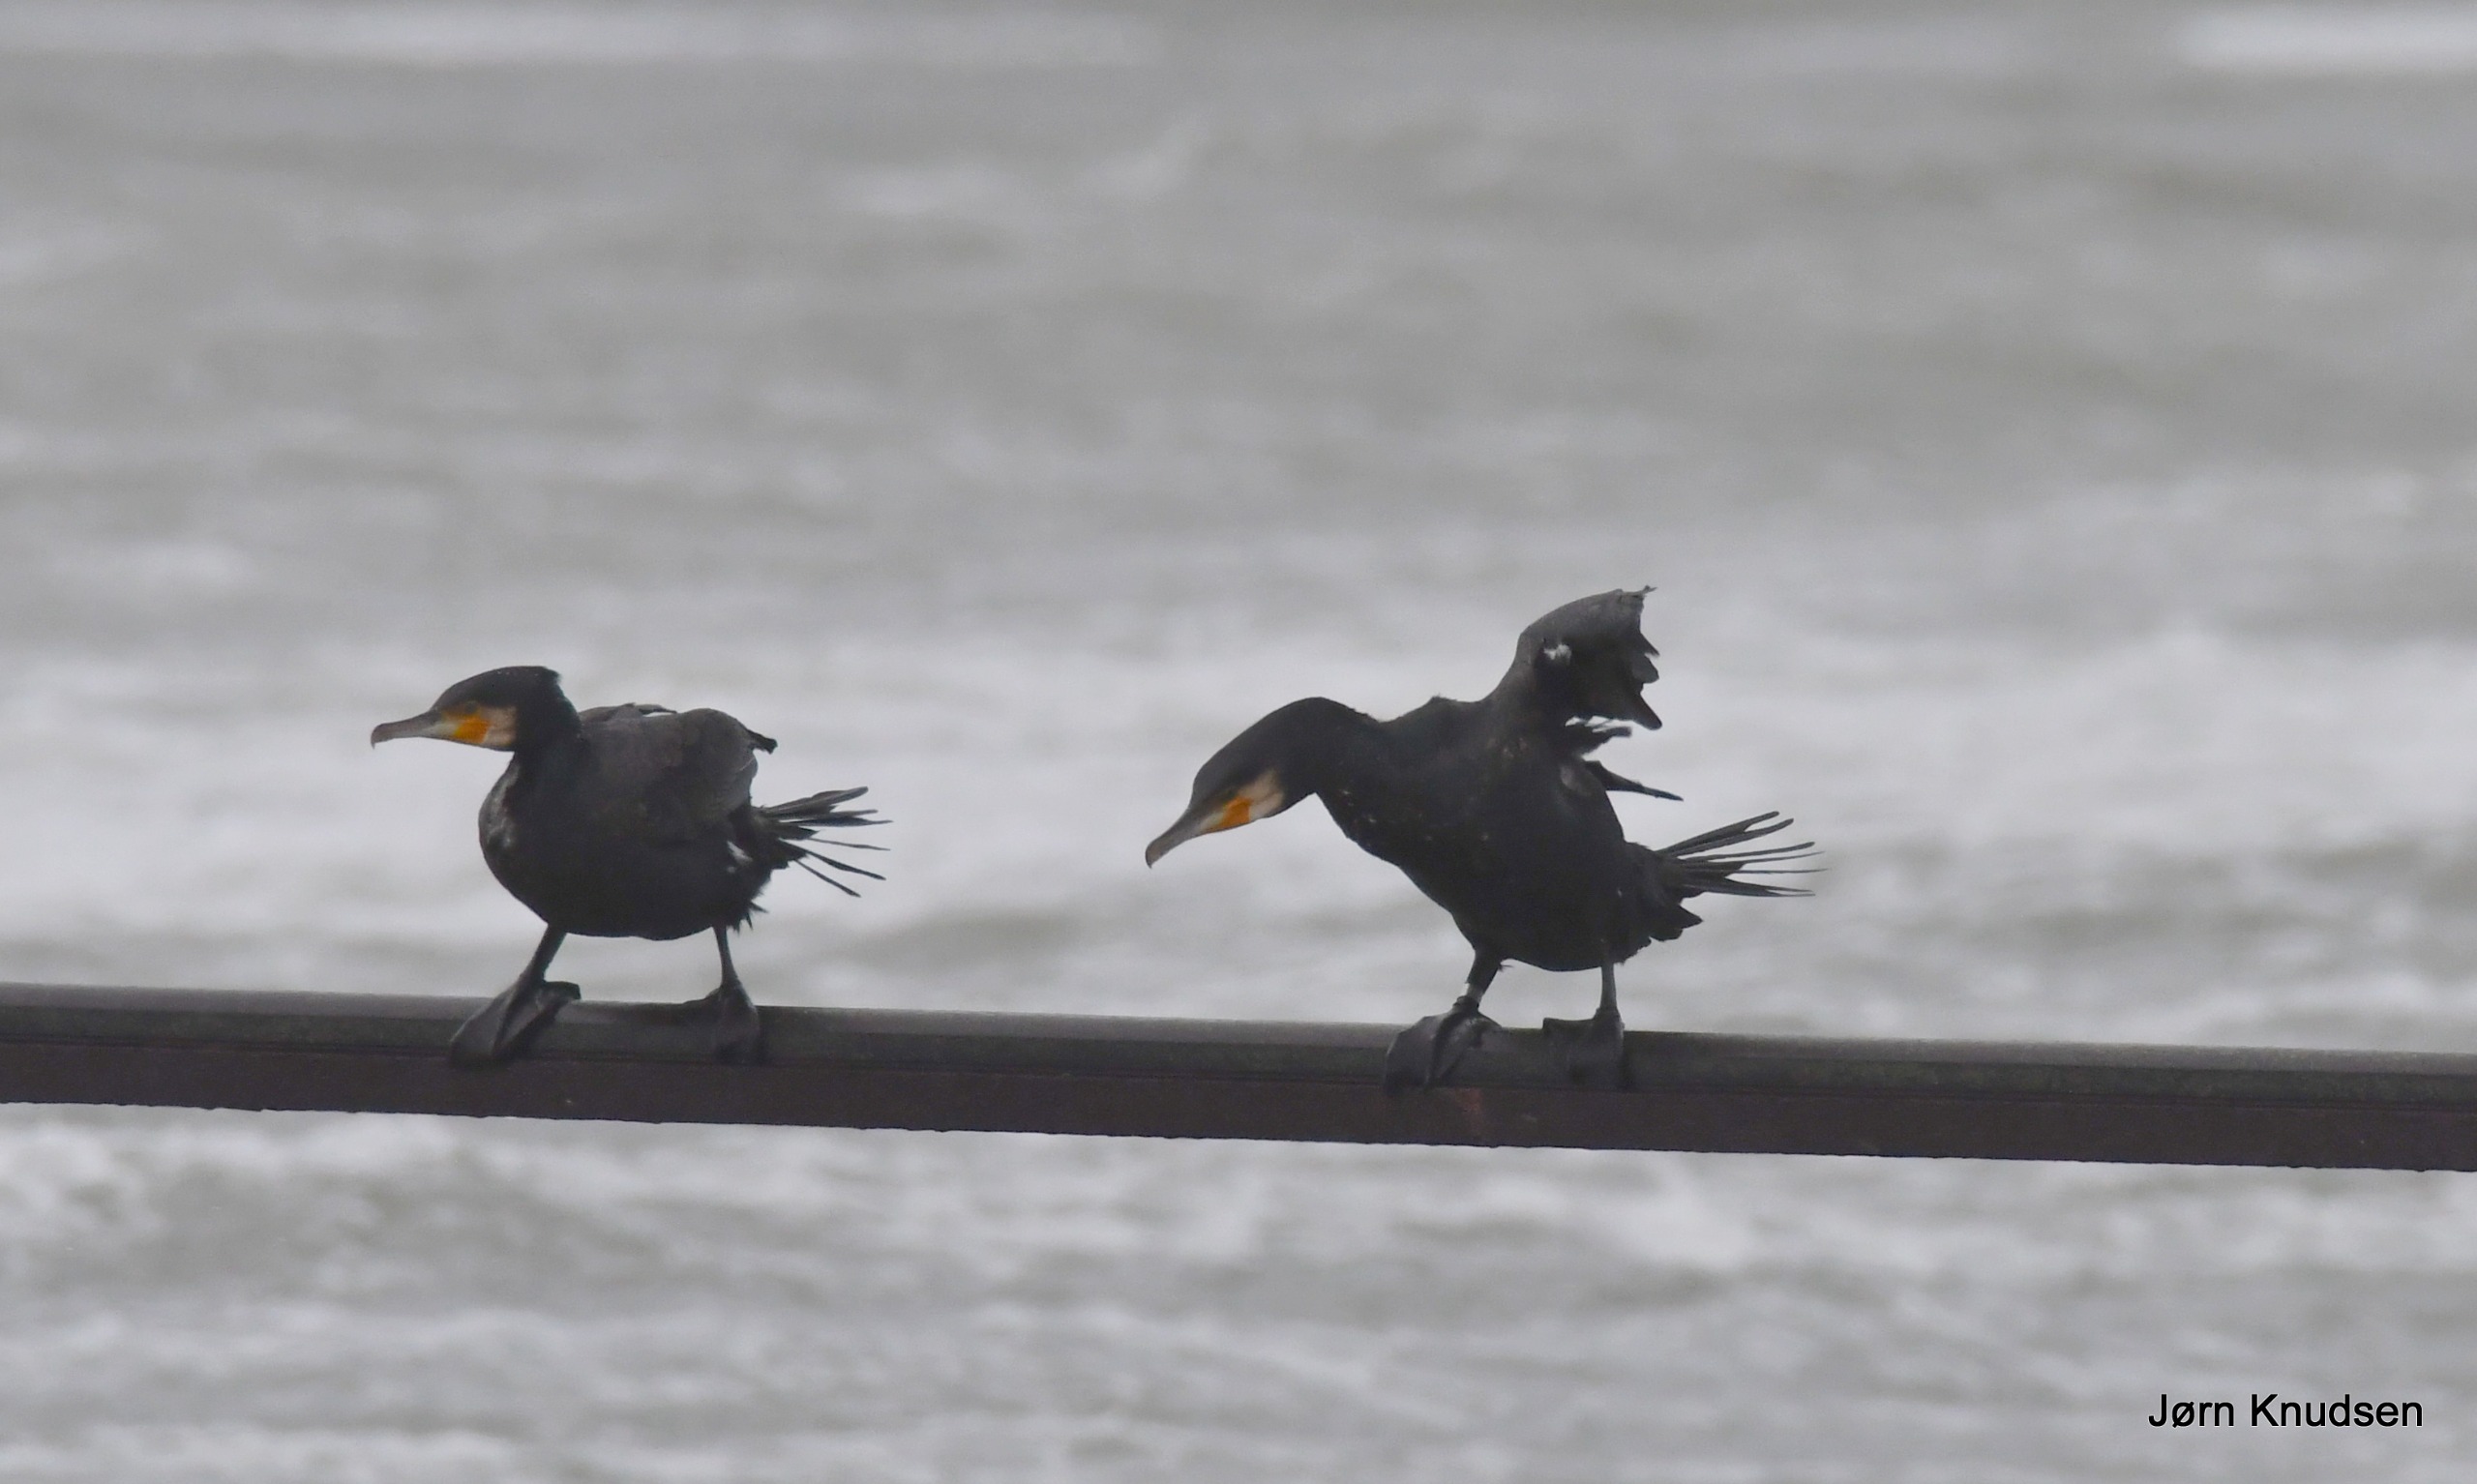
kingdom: Animalia
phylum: Chordata
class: Aves
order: Suliformes
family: Phalacrocoracidae
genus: Phalacrocorax
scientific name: Phalacrocorax carbo
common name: Skarv
